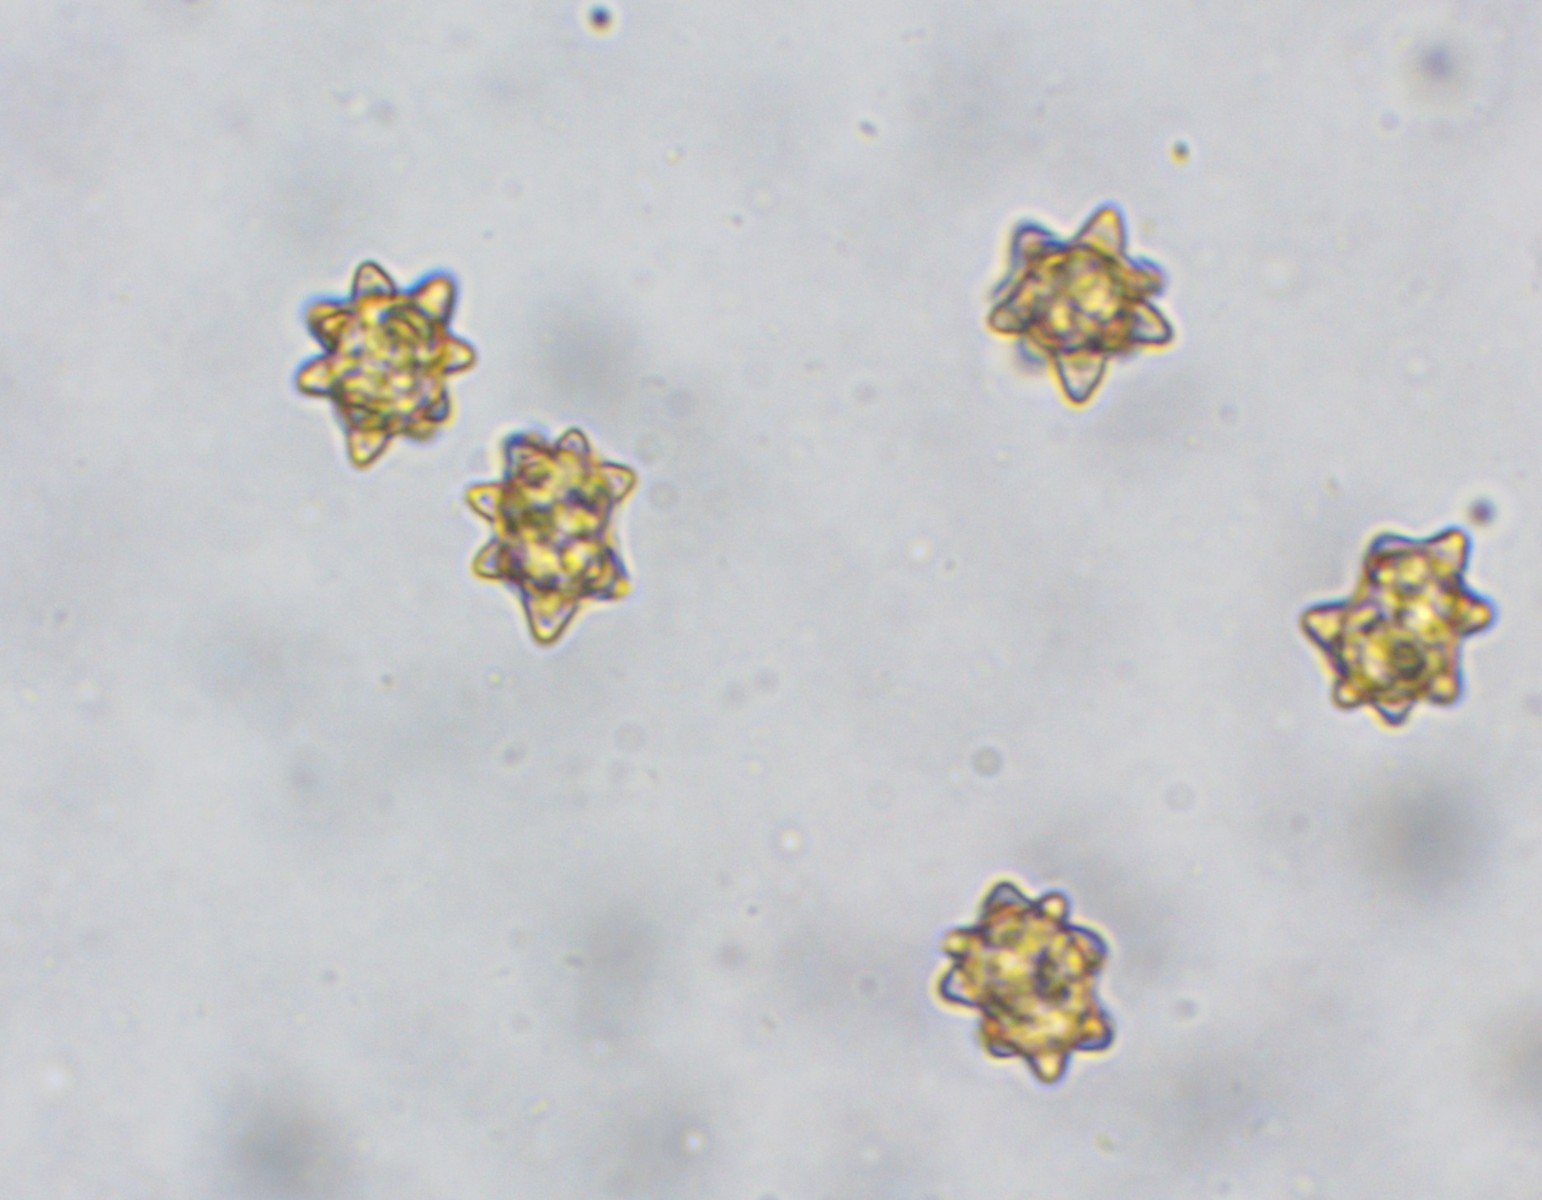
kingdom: Fungi
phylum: Basidiomycota
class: Agaricomycetes
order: Agaricales
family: Inocybaceae
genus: Inocybe
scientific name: Inocybe asterospora
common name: stjernesporet trævlhat
